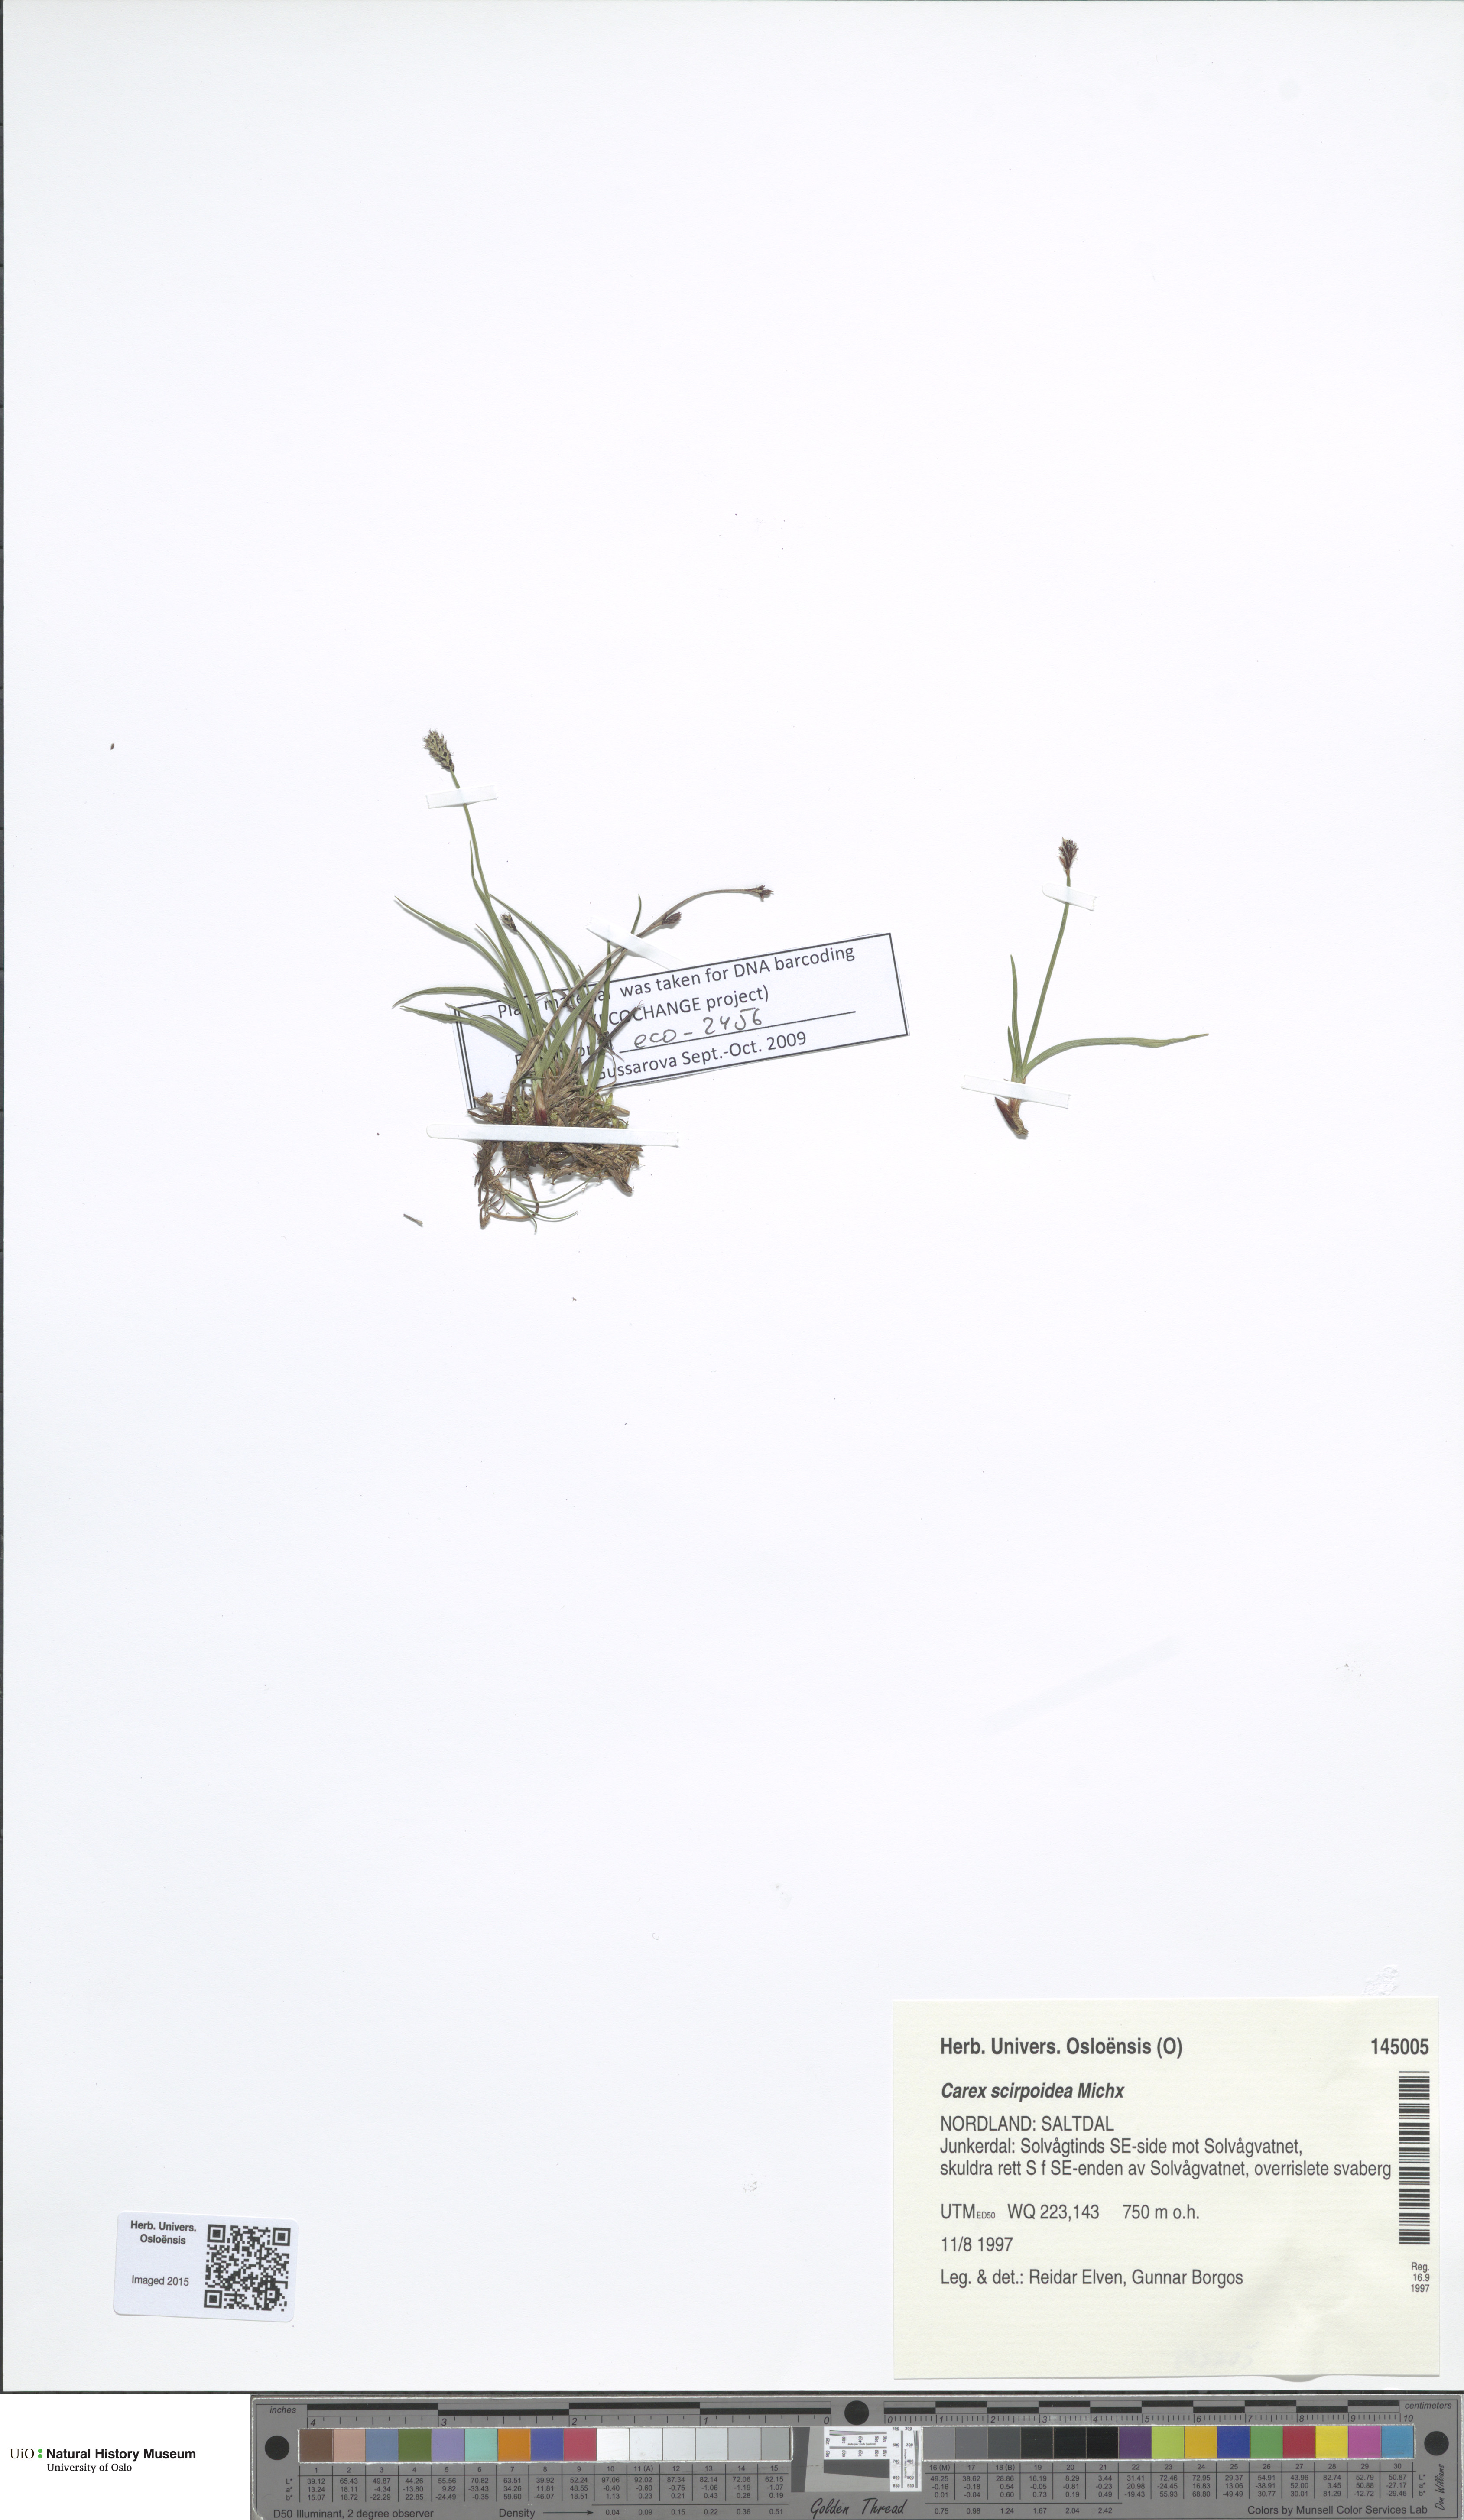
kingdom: Plantae
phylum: Tracheophyta
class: Liliopsida
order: Poales
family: Cyperaceae
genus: Carex
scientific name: Carex scirpoidea
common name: Canada single-spike sedge
